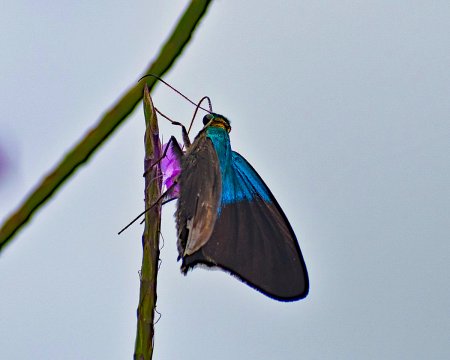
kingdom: Animalia
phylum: Arthropoda
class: Insecta
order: Lepidoptera
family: Hesperiidae
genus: Astraptes
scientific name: Astraptes alardus
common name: Frosted Flasher
